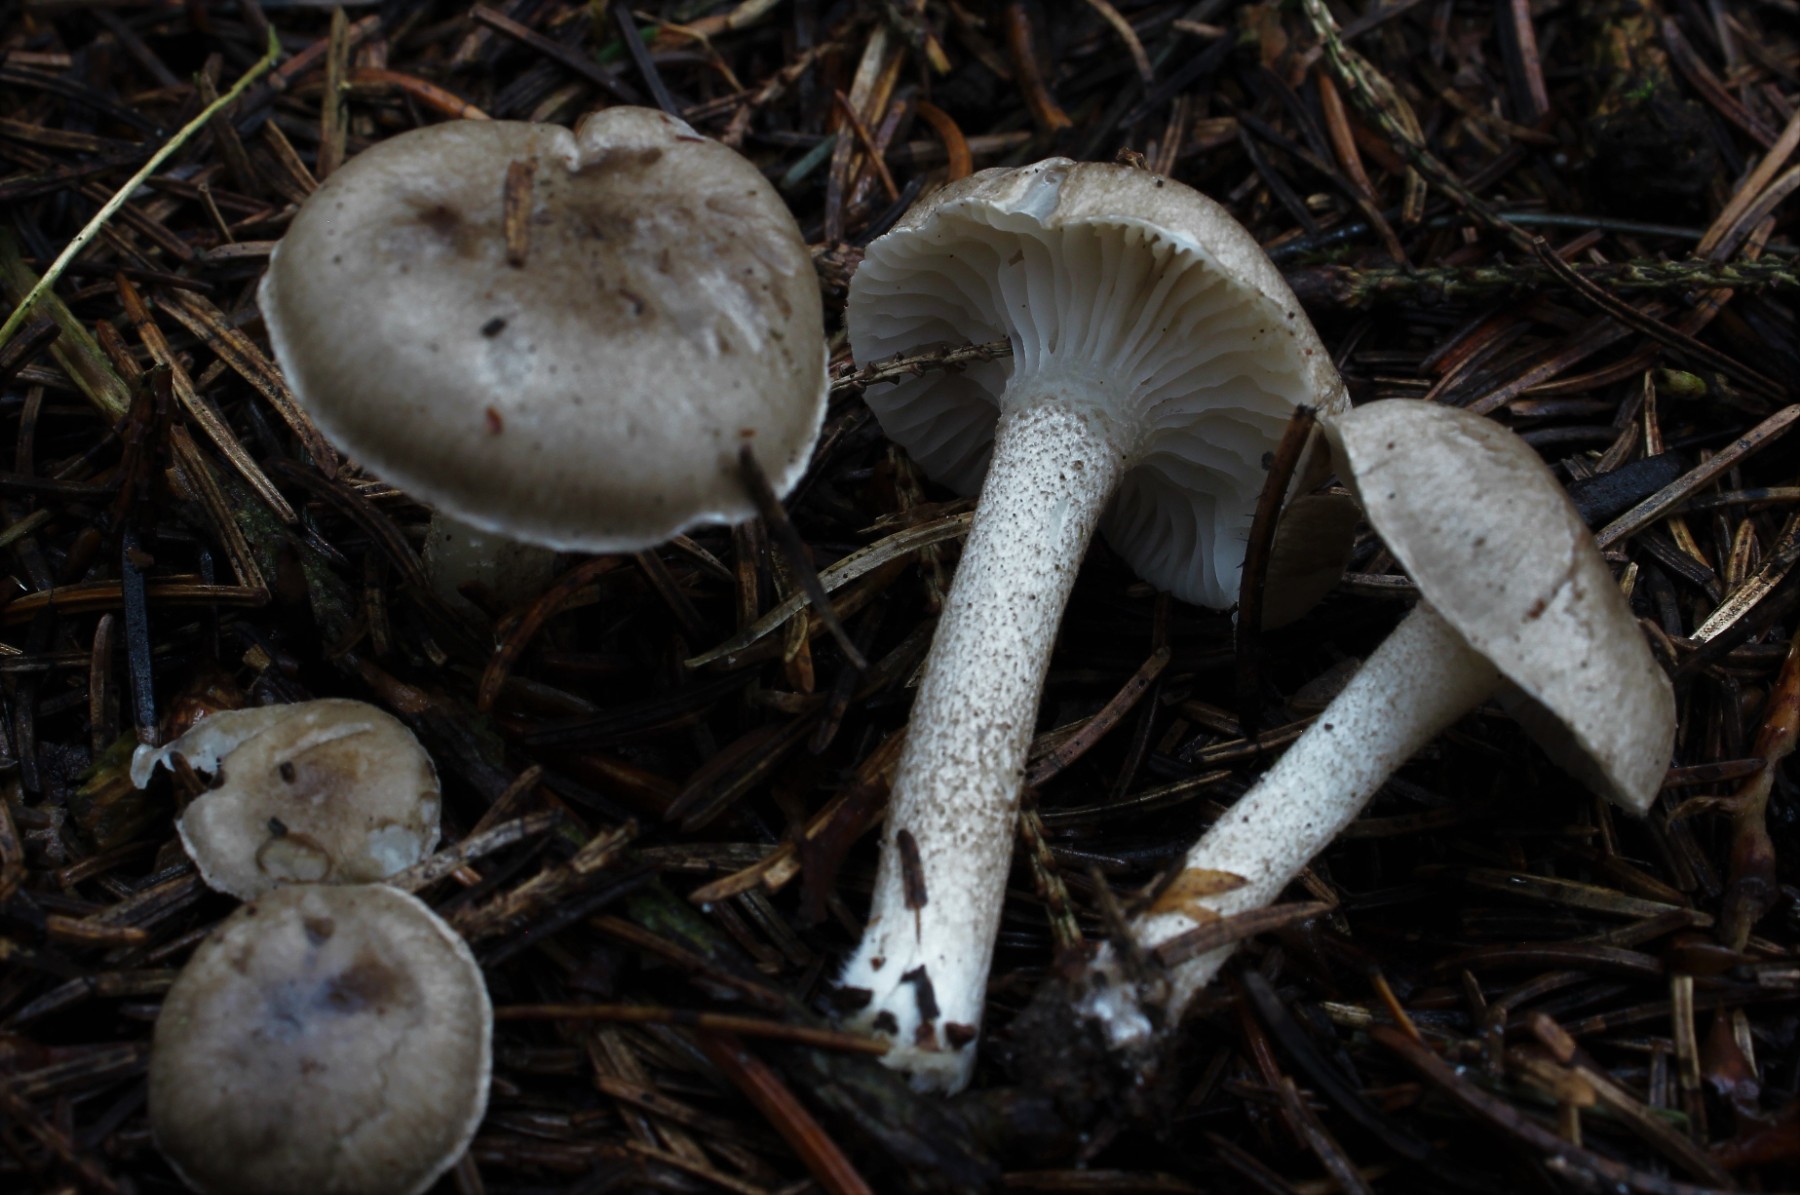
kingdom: Fungi
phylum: Basidiomycota
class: Agaricomycetes
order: Agaricales
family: Hygrophoraceae
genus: Hygrophorus
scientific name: Hygrophorus pustulatus
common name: mørkprikket sneglehat
